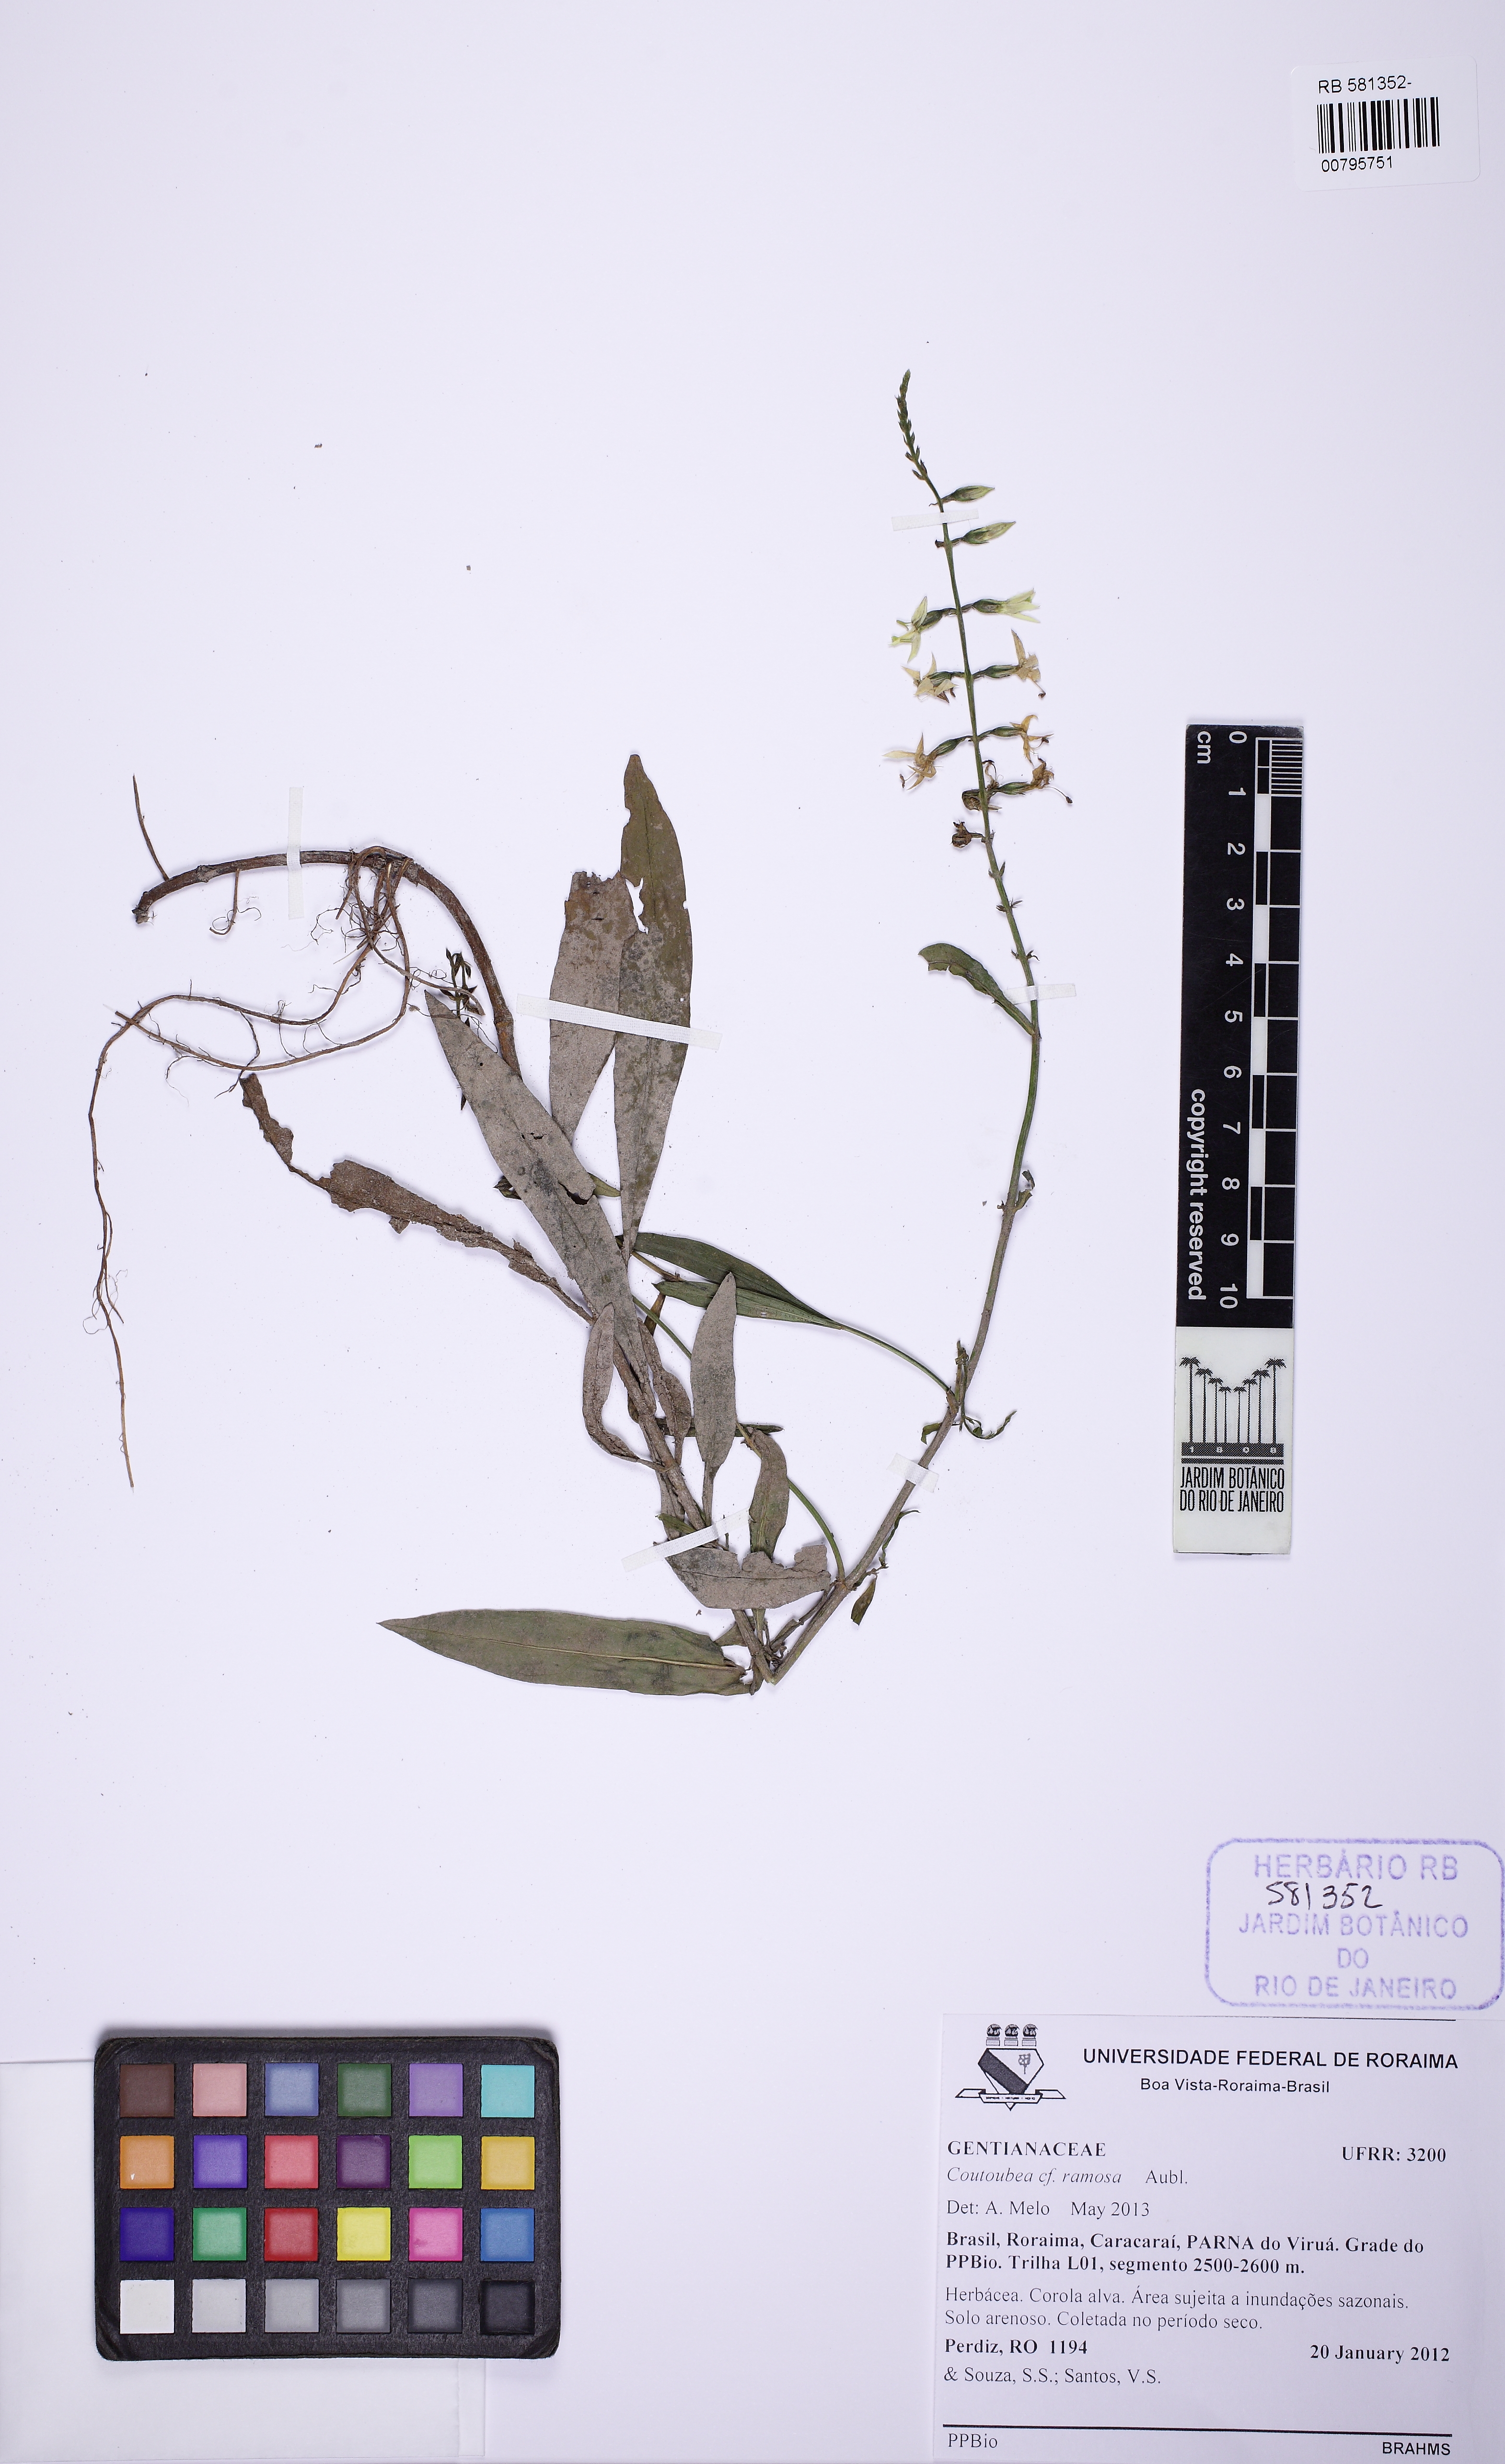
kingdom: Plantae
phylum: Tracheophyta
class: Magnoliopsida
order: Gentianales
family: Gentianaceae
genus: Coutoubea
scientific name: Coutoubea ramosa
